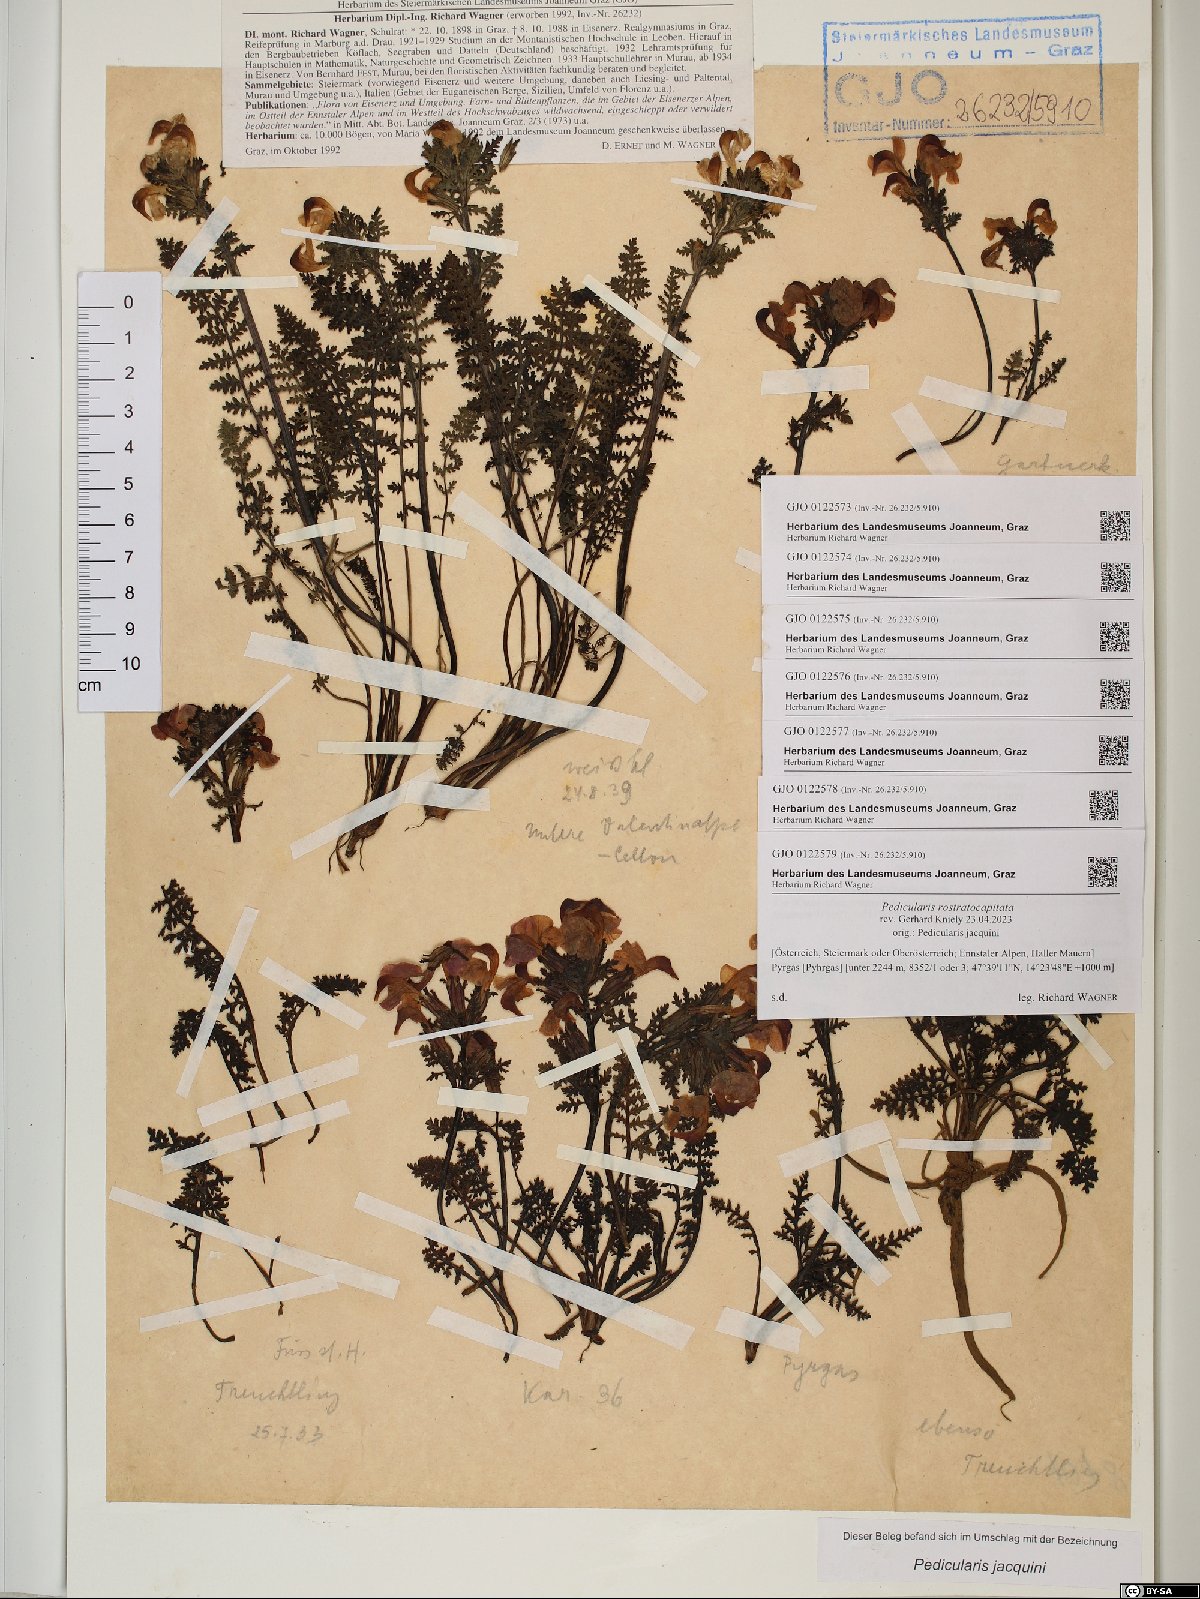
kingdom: Plantae
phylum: Tracheophyta
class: Magnoliopsida
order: Lamiales
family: Orobanchaceae
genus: Pedicularis
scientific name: Pedicularis rostratocapitata
